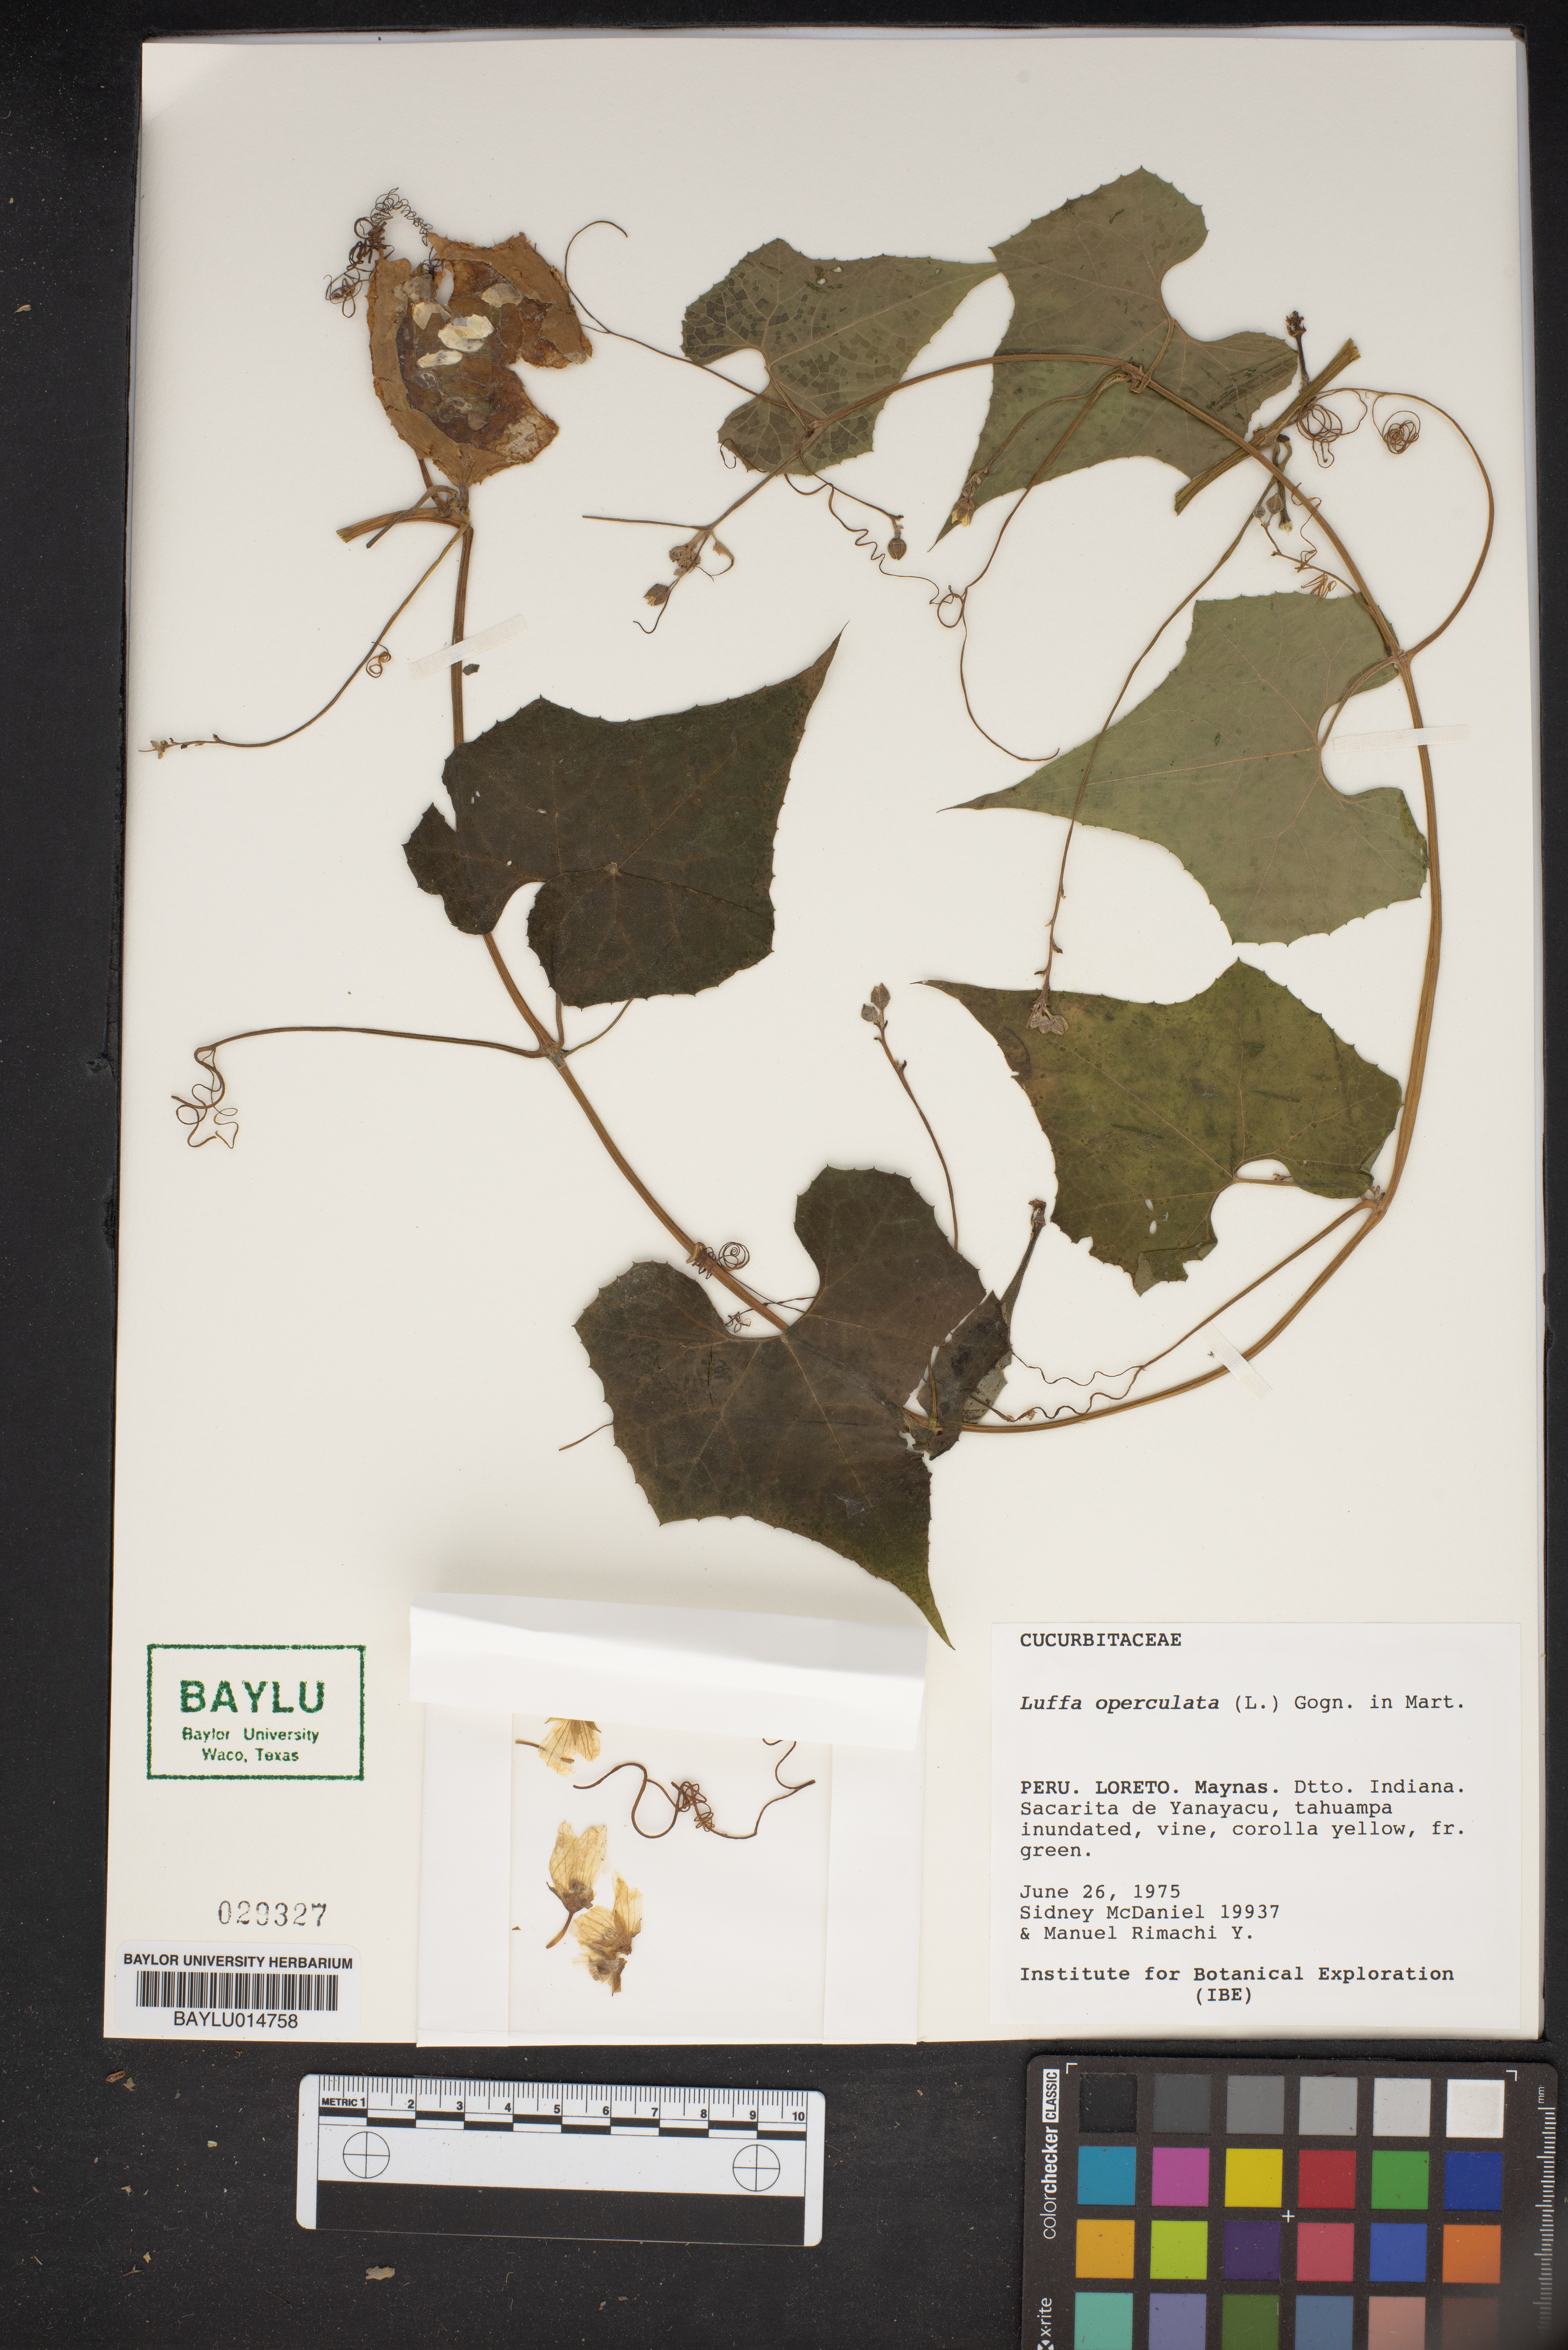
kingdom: Plantae
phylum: Tracheophyta
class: Magnoliopsida
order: Cucurbitales
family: Cucurbitaceae
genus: Luffa
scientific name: Luffa operculata
